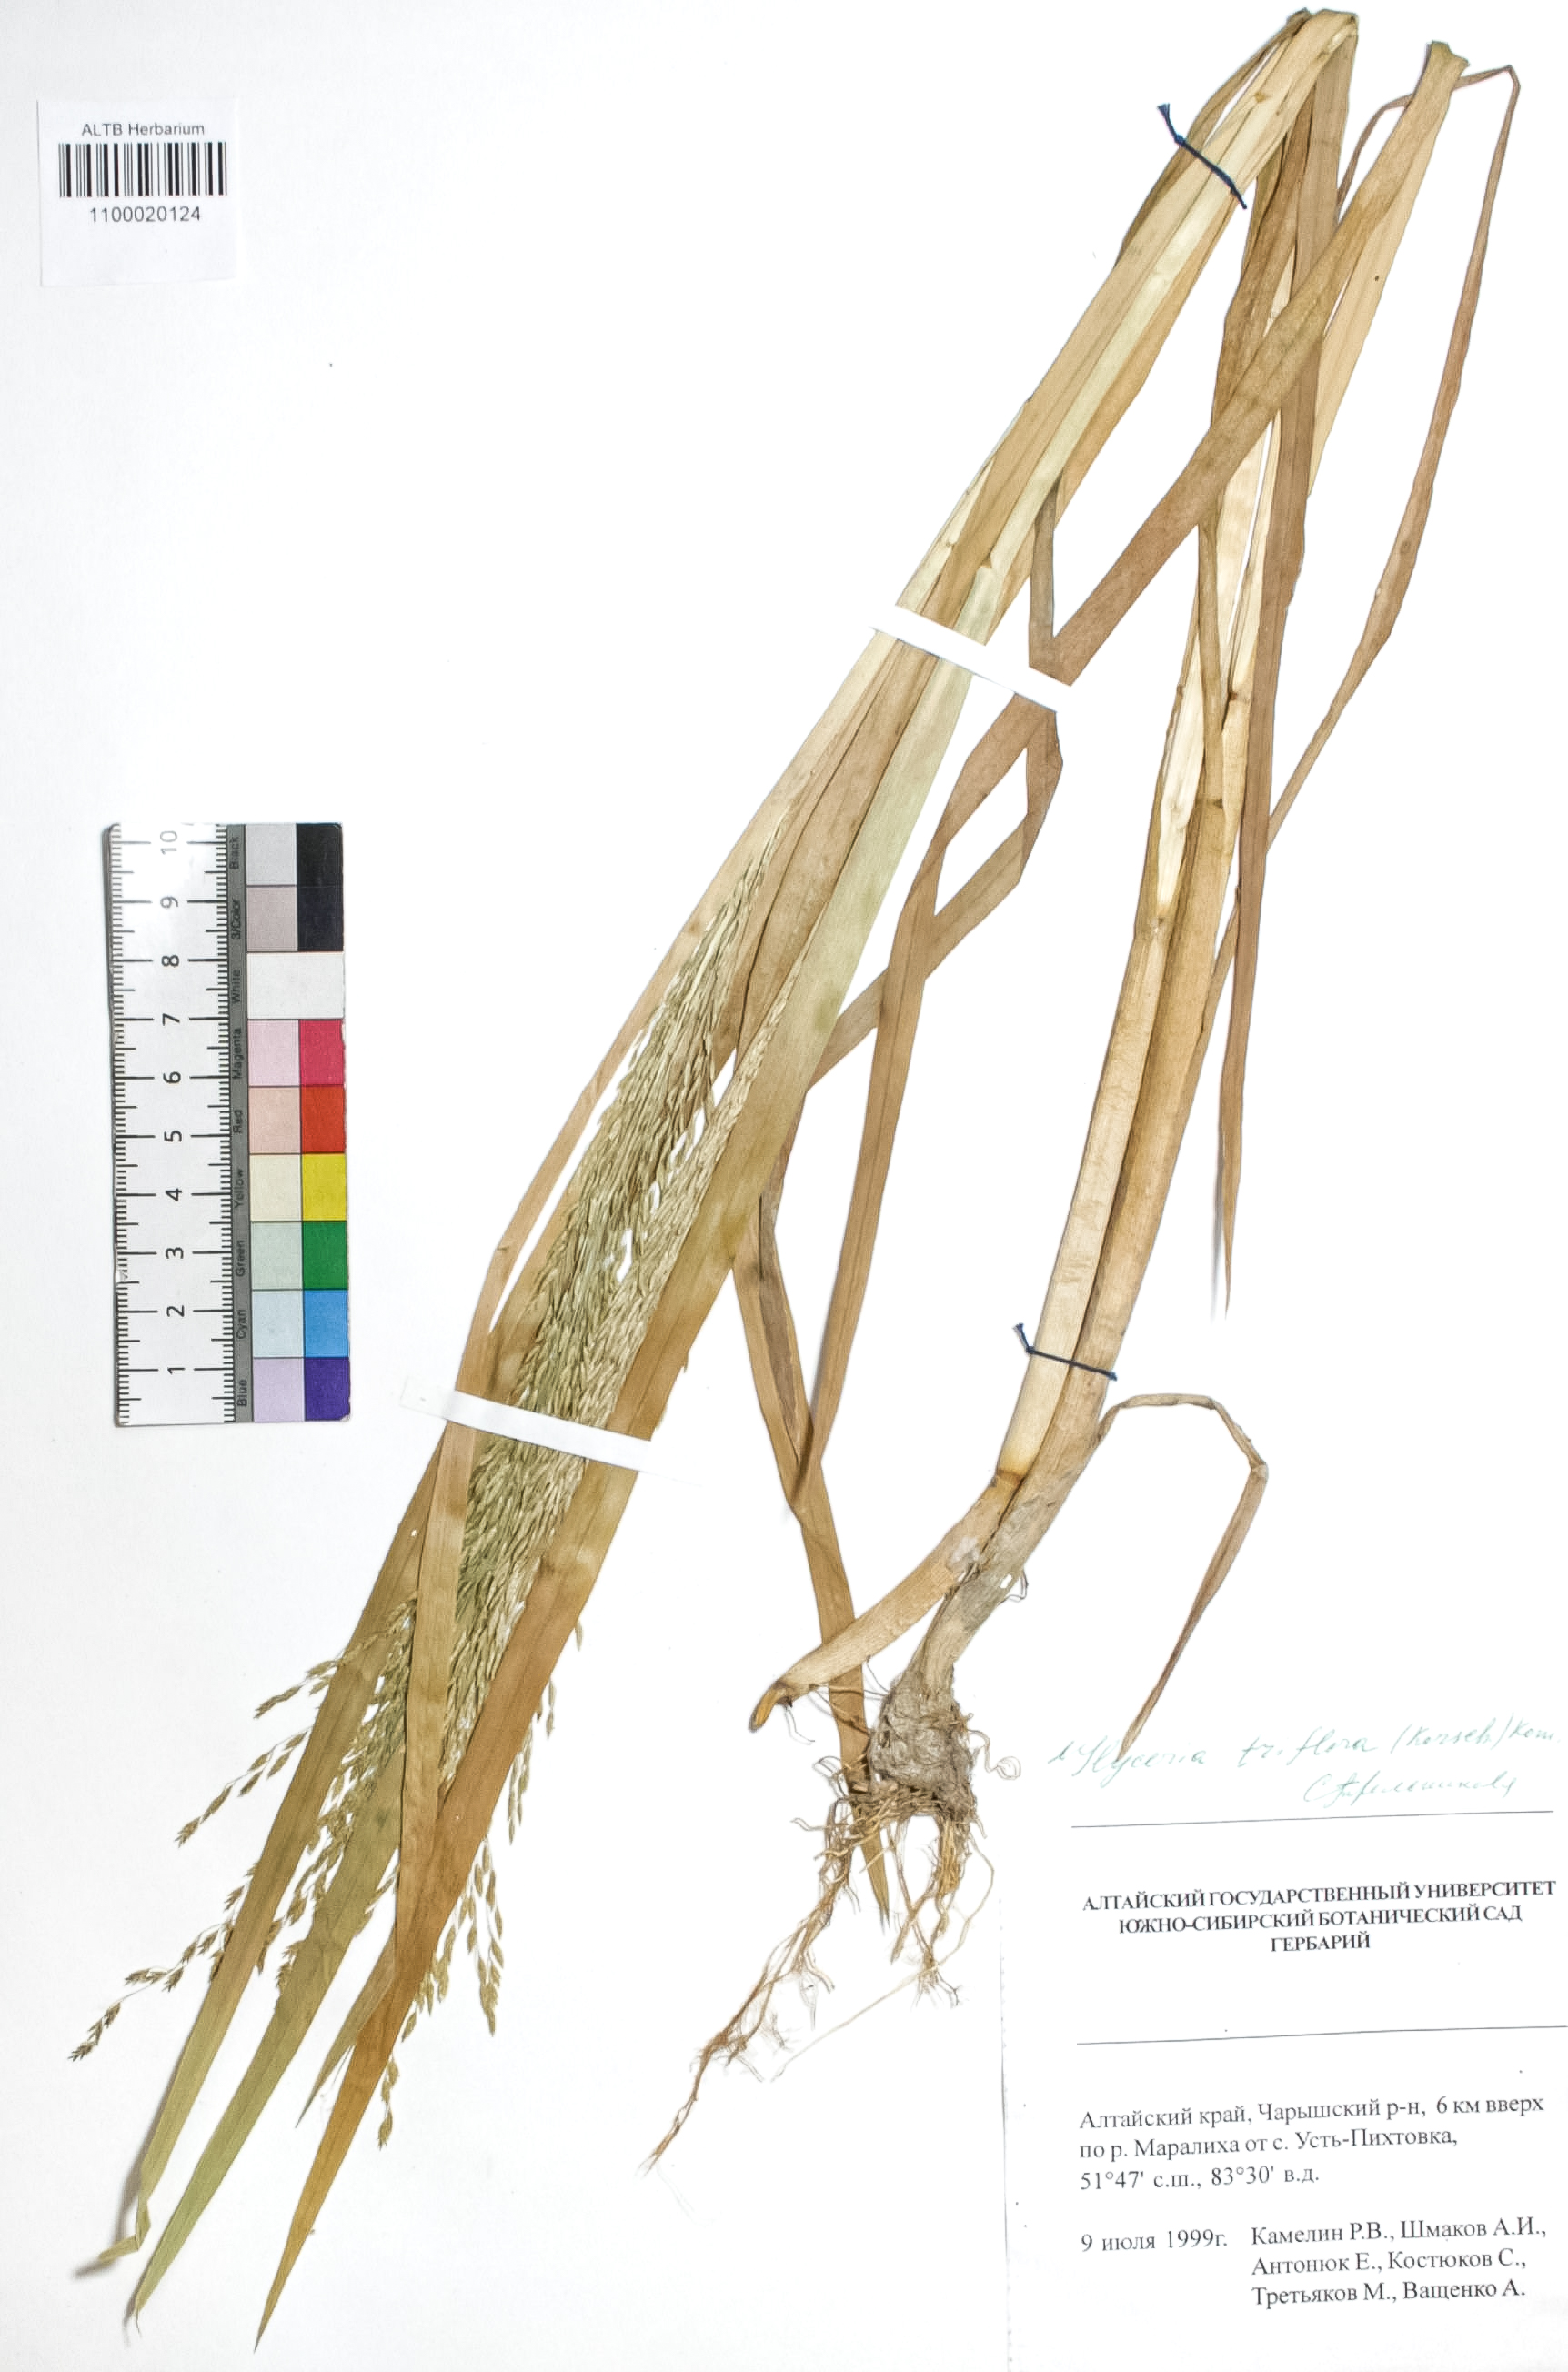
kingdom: Plantae
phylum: Tracheophyta
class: Liliopsida
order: Poales
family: Poaceae
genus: Glyceria
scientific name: Glyceria lithuanica
